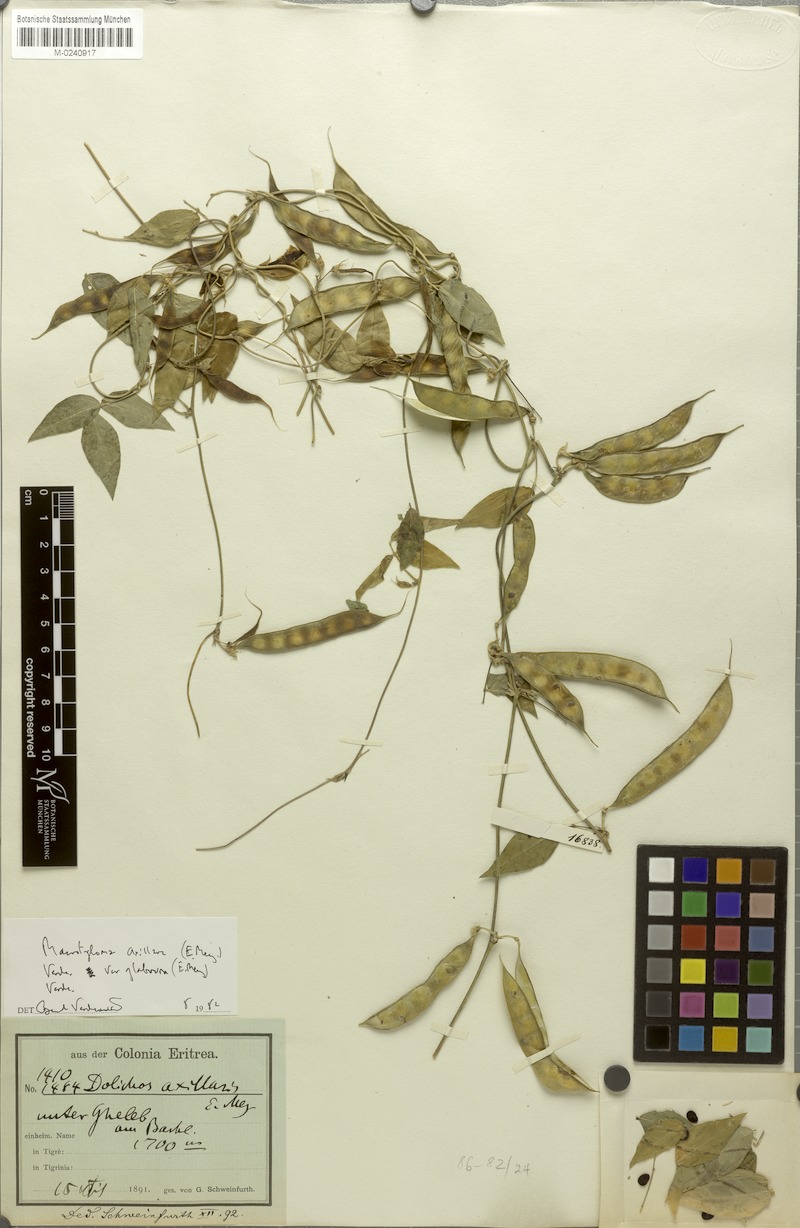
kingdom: Plantae
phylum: Tracheophyta
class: Magnoliopsida
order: Fabales
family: Fabaceae
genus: Macrotyloma
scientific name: Macrotyloma axillare
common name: Perennial horsegram
